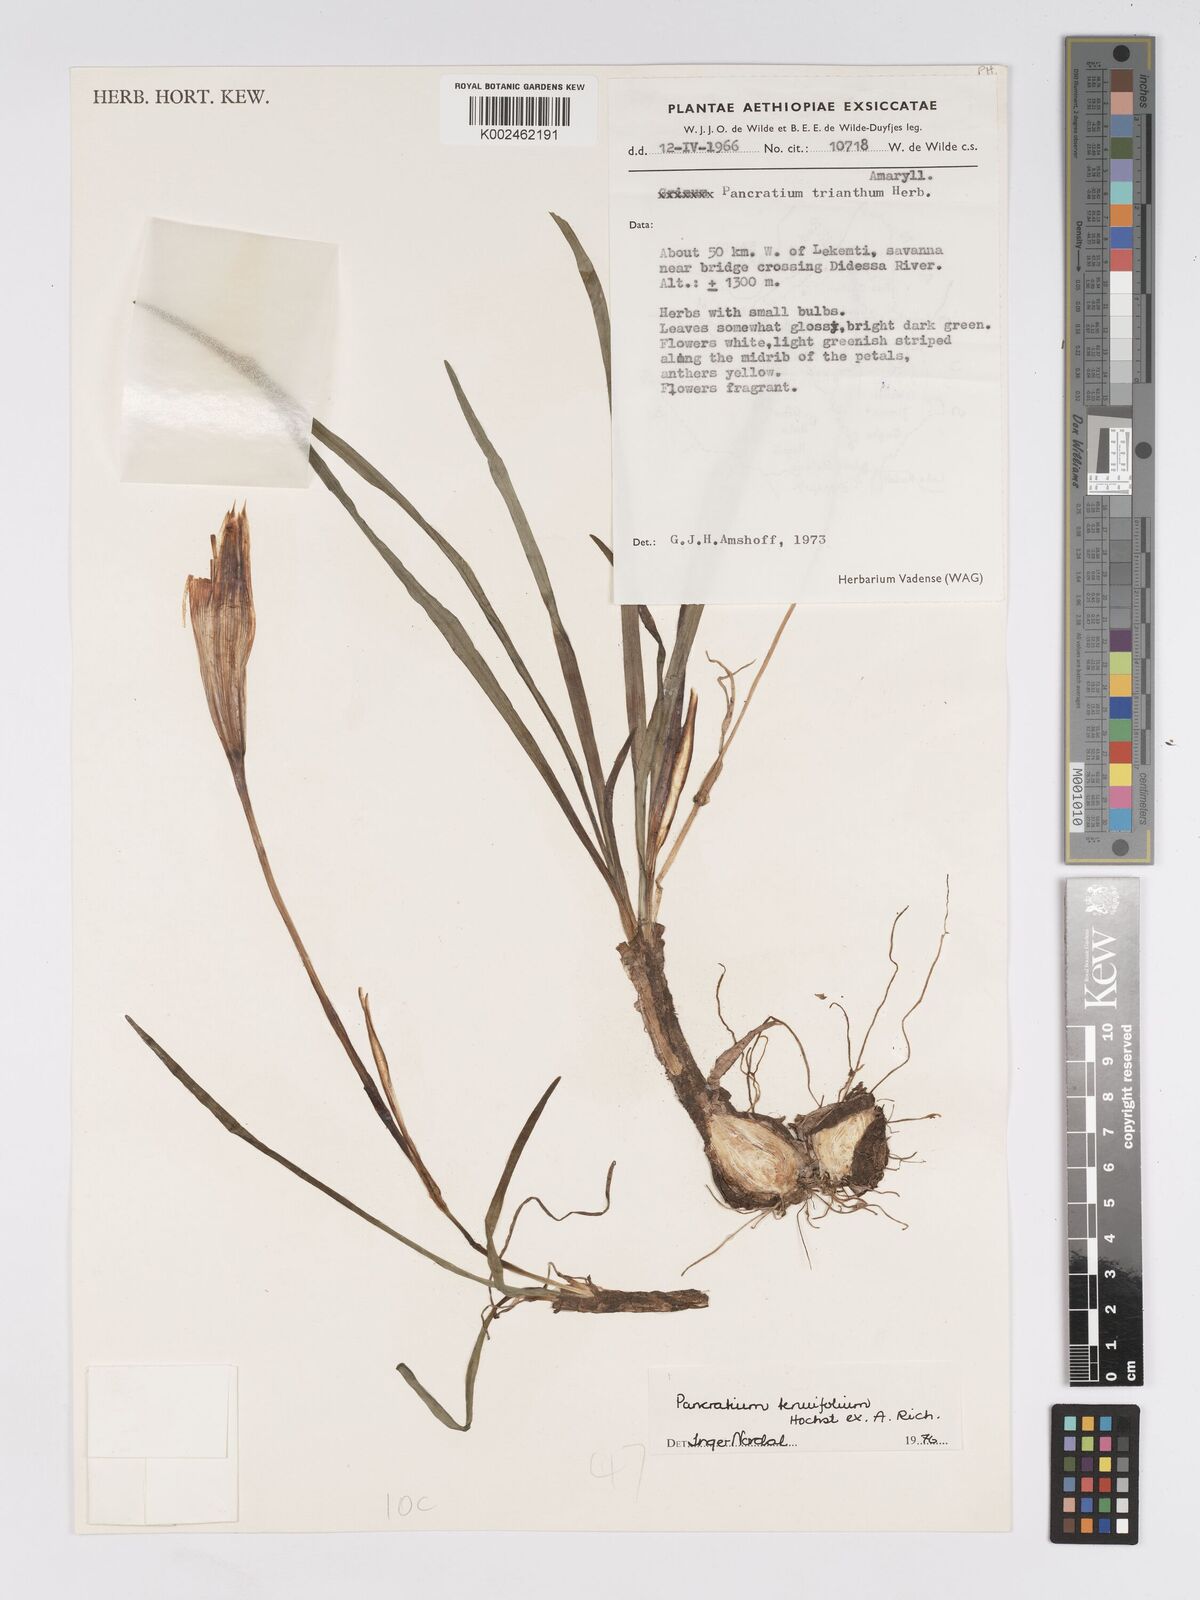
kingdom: Plantae
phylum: Tracheophyta
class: Liliopsida
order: Asparagales
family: Amaryllidaceae
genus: Pancratium
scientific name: Pancratium tenuifolium
